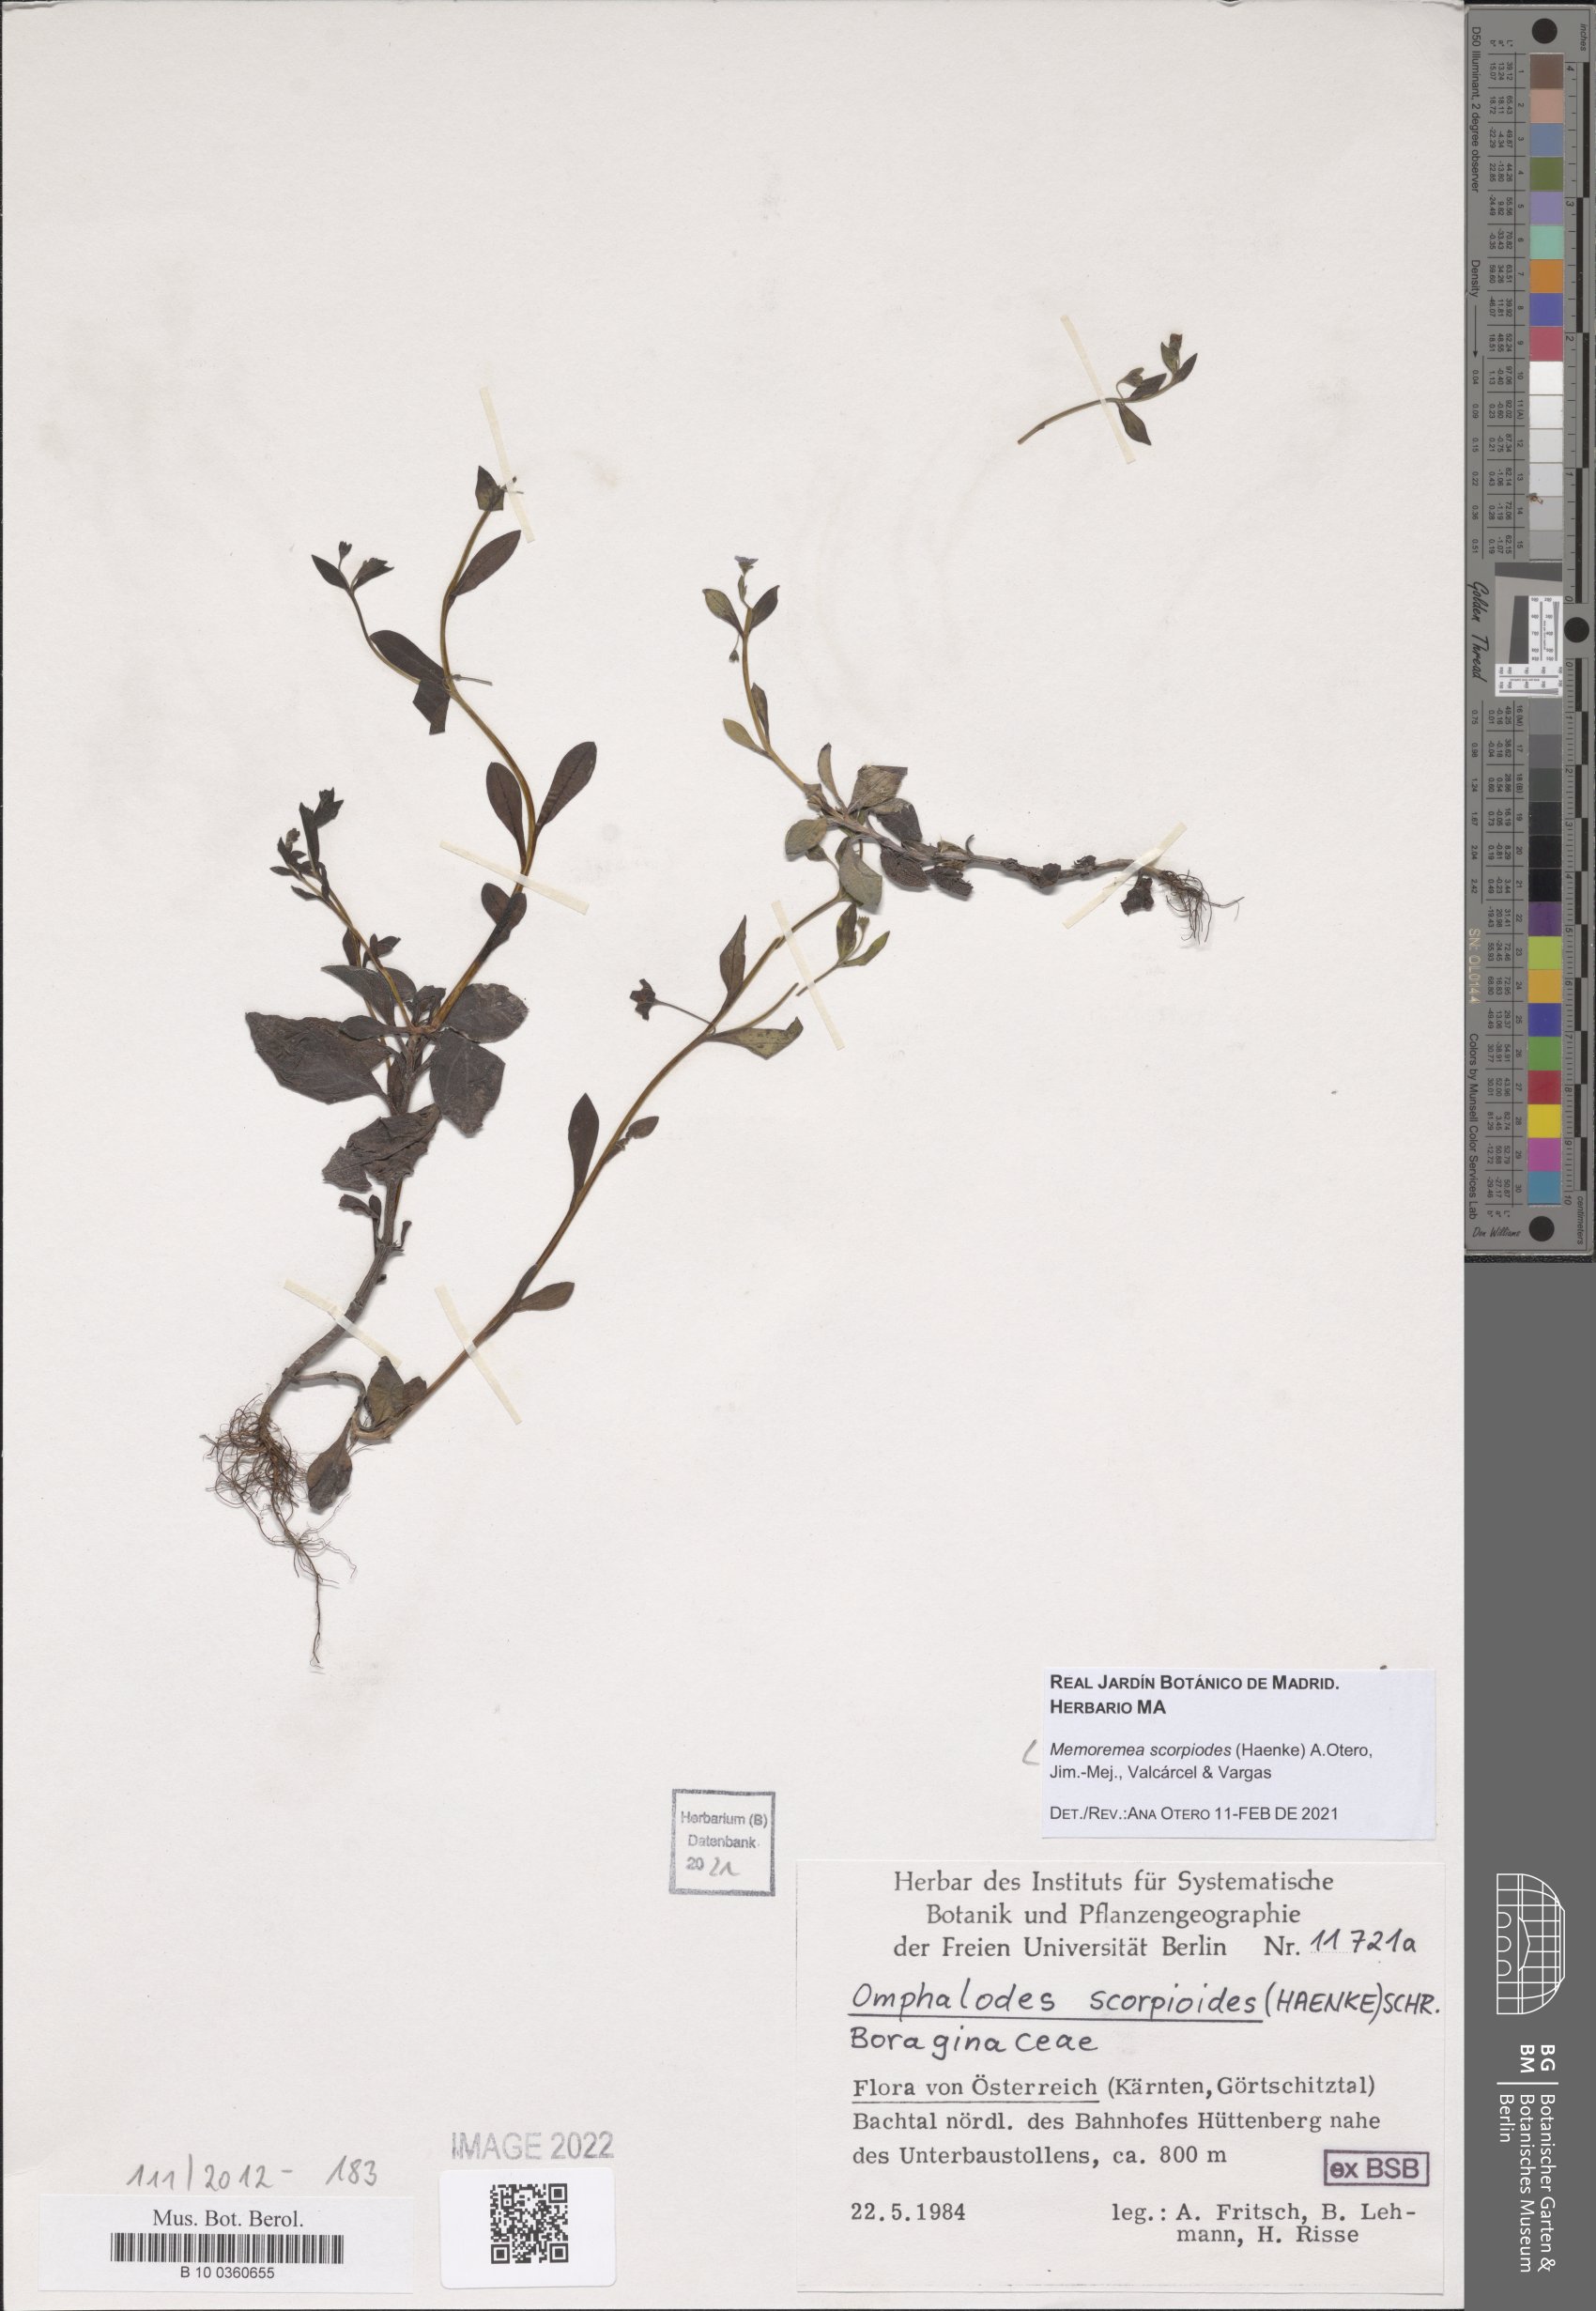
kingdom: Plantae
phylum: Tracheophyta
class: Magnoliopsida
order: Boraginales
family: Boraginaceae
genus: Memoremea
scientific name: Memoremea scorpioides
